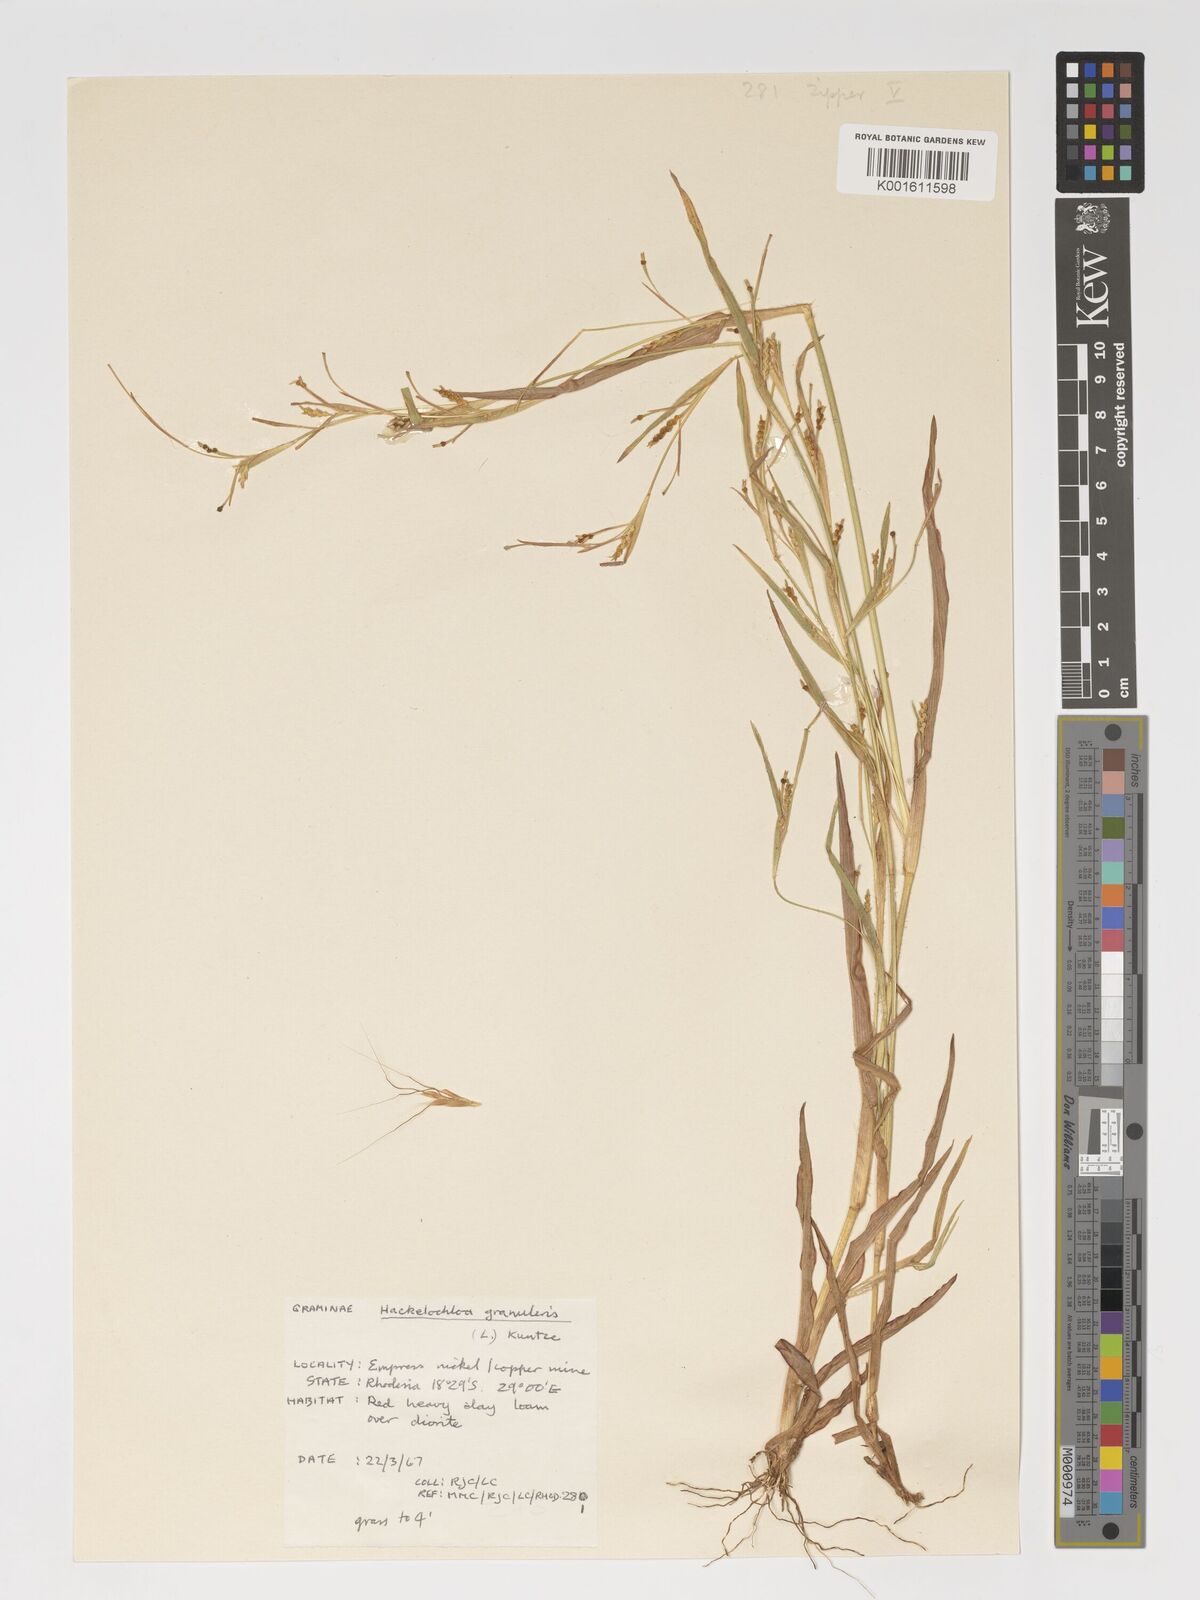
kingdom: Plantae
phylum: Tracheophyta
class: Liliopsida
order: Poales
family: Poaceae
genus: Hackelochloa
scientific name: Hackelochloa granularis
